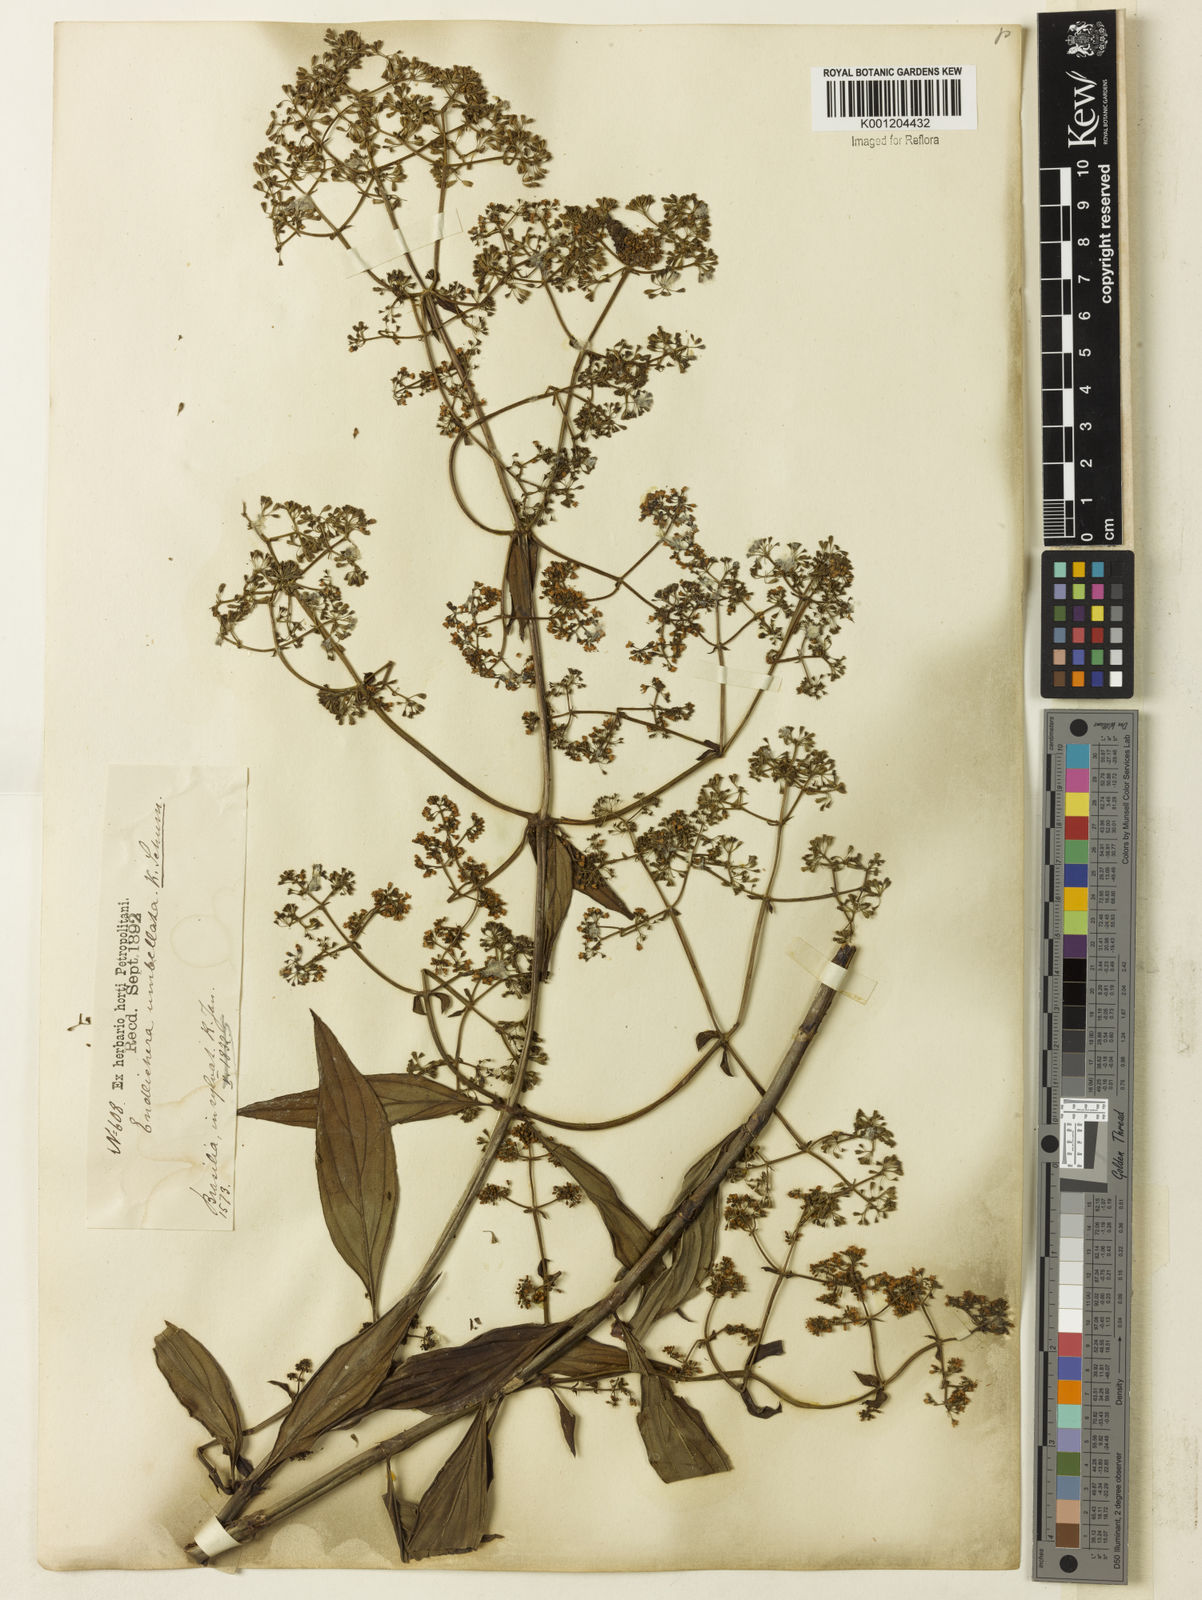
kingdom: Plantae
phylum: Tracheophyta
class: Magnoliopsida
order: Gentianales
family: Rubiaceae
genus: Emmeorhiza
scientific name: Emmeorhiza umbellata
